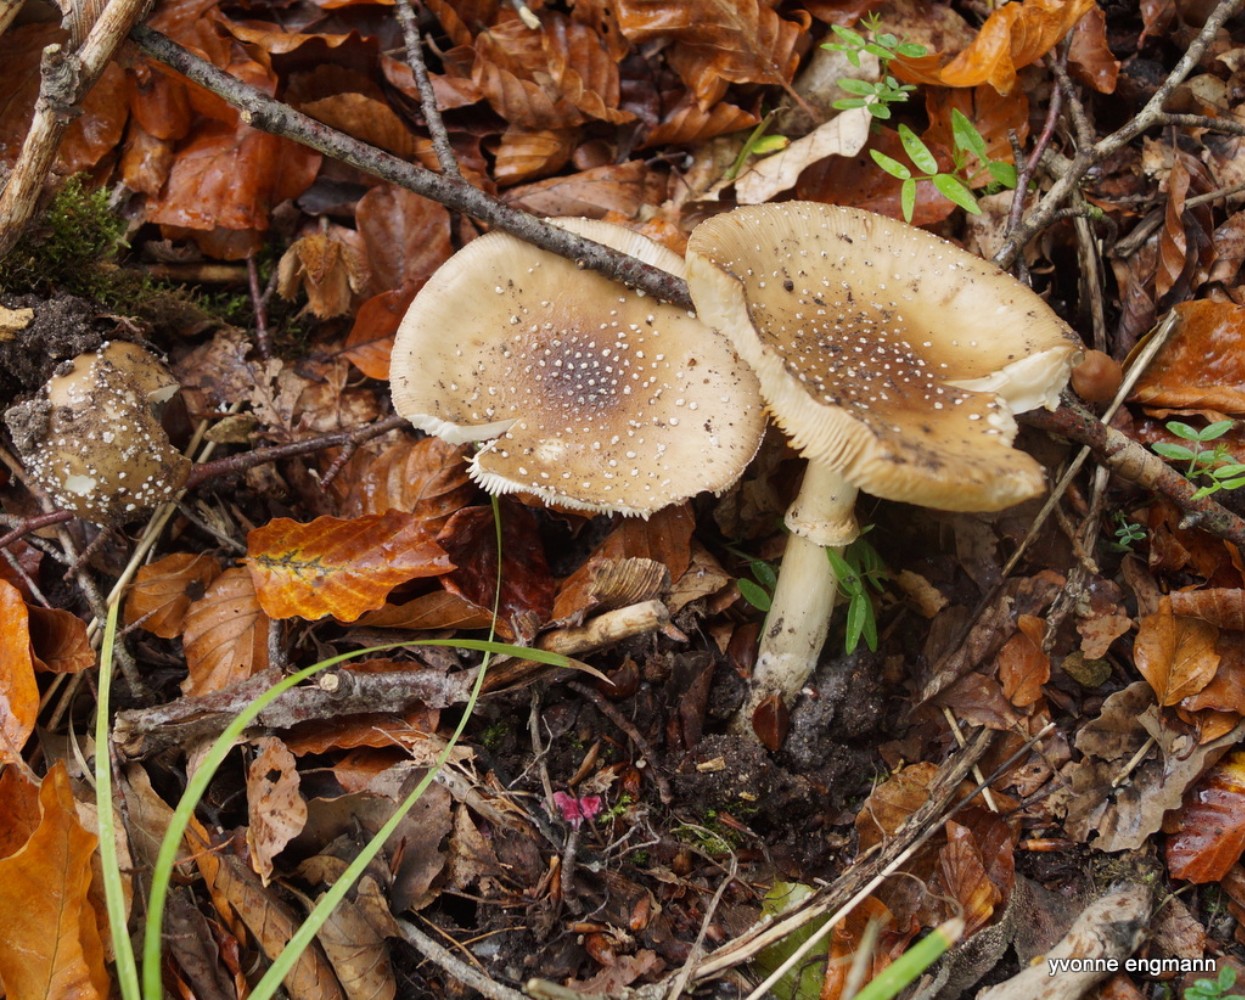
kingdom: Fungi
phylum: Basidiomycota
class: Agaricomycetes
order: Agaricales
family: Amanitaceae
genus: Amanita
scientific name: Amanita pantherina
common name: panter-fluesvamp
